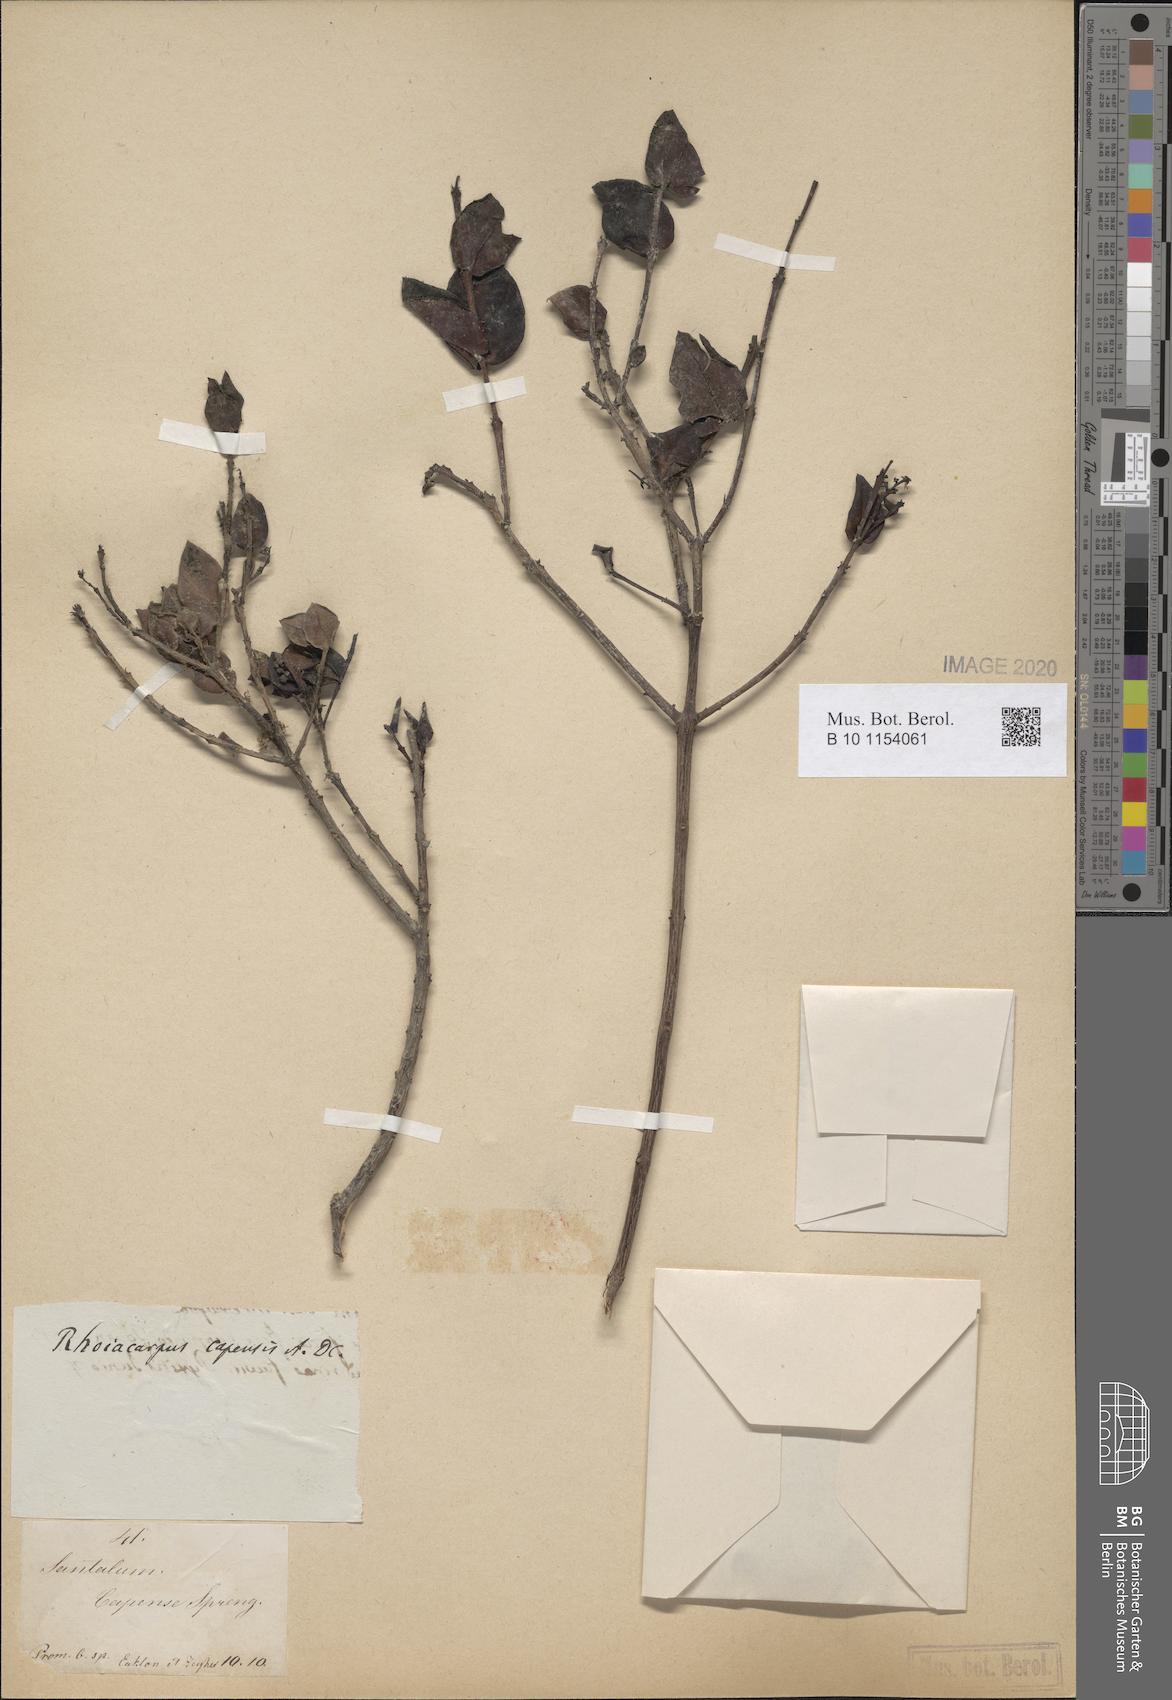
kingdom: Plantae
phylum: Tracheophyta
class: Magnoliopsida
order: Santalales
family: Santalaceae
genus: Rhoiacarpos
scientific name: Rhoiacarpos capensis
